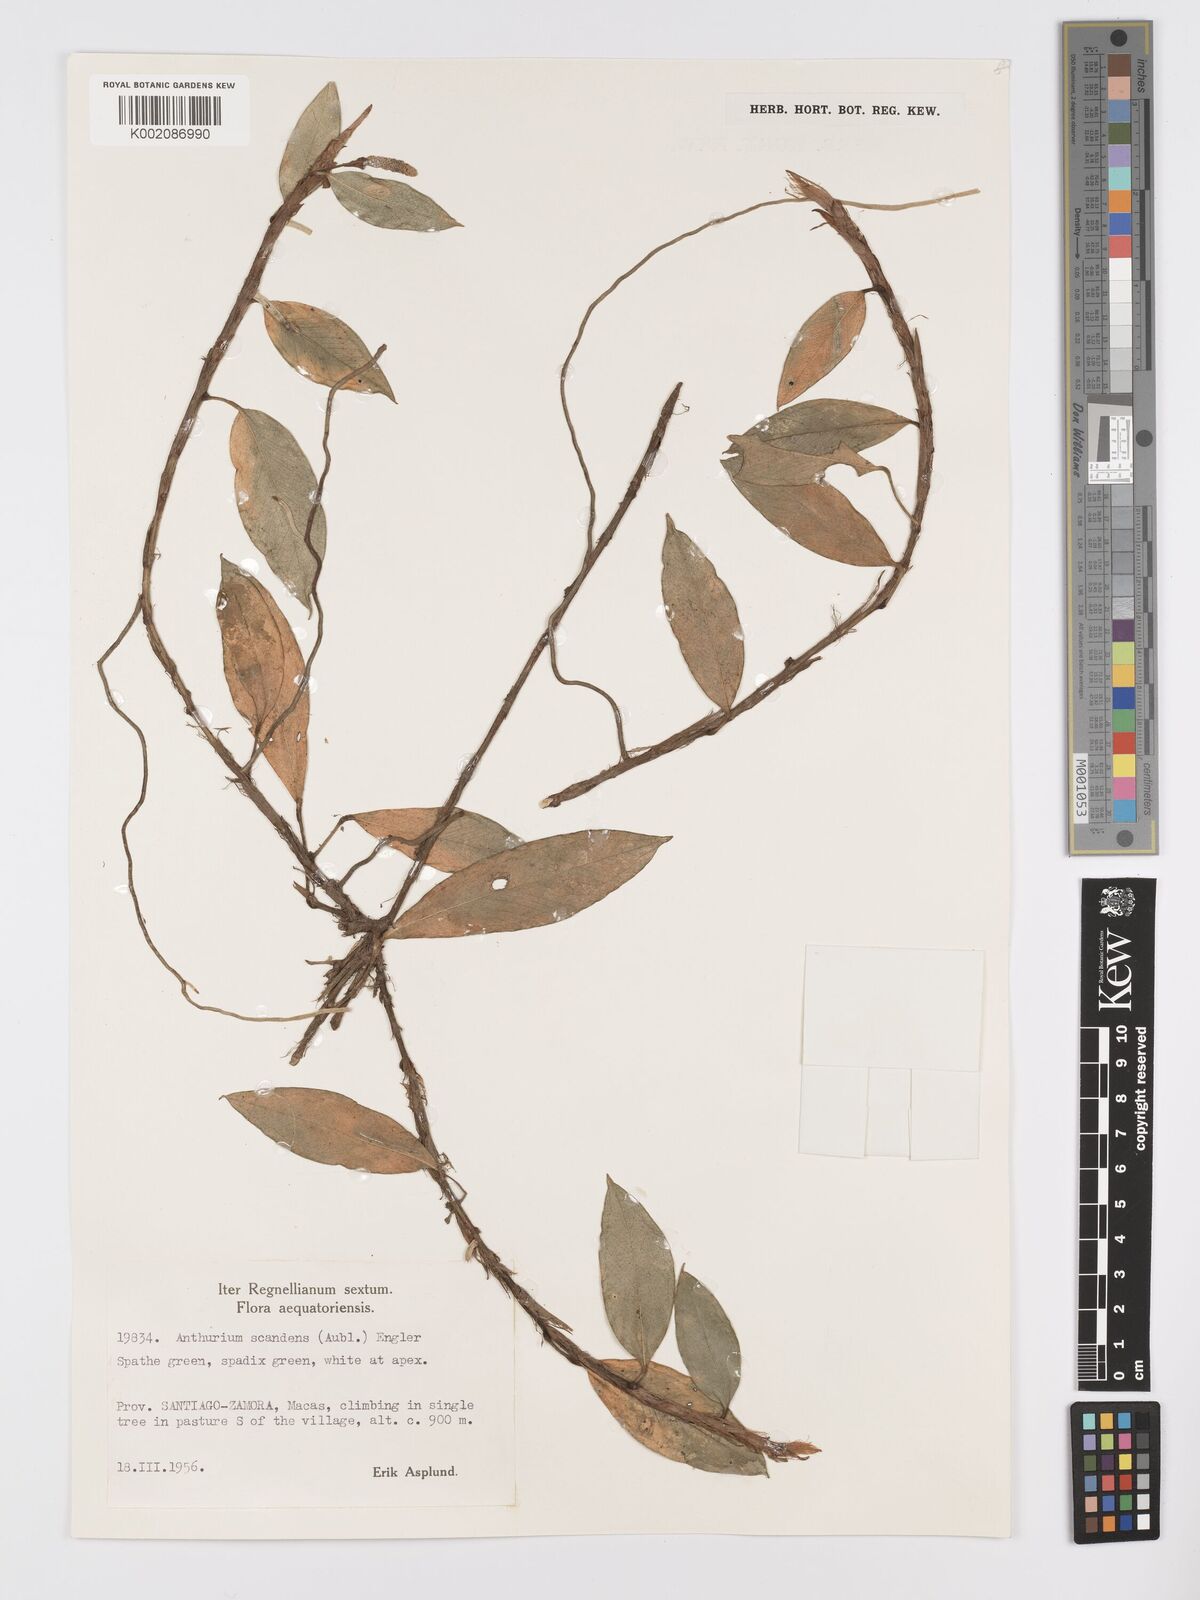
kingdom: Plantae
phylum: Tracheophyta
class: Liliopsida
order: Alismatales
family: Araceae
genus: Anthurium
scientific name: Anthurium scandens
